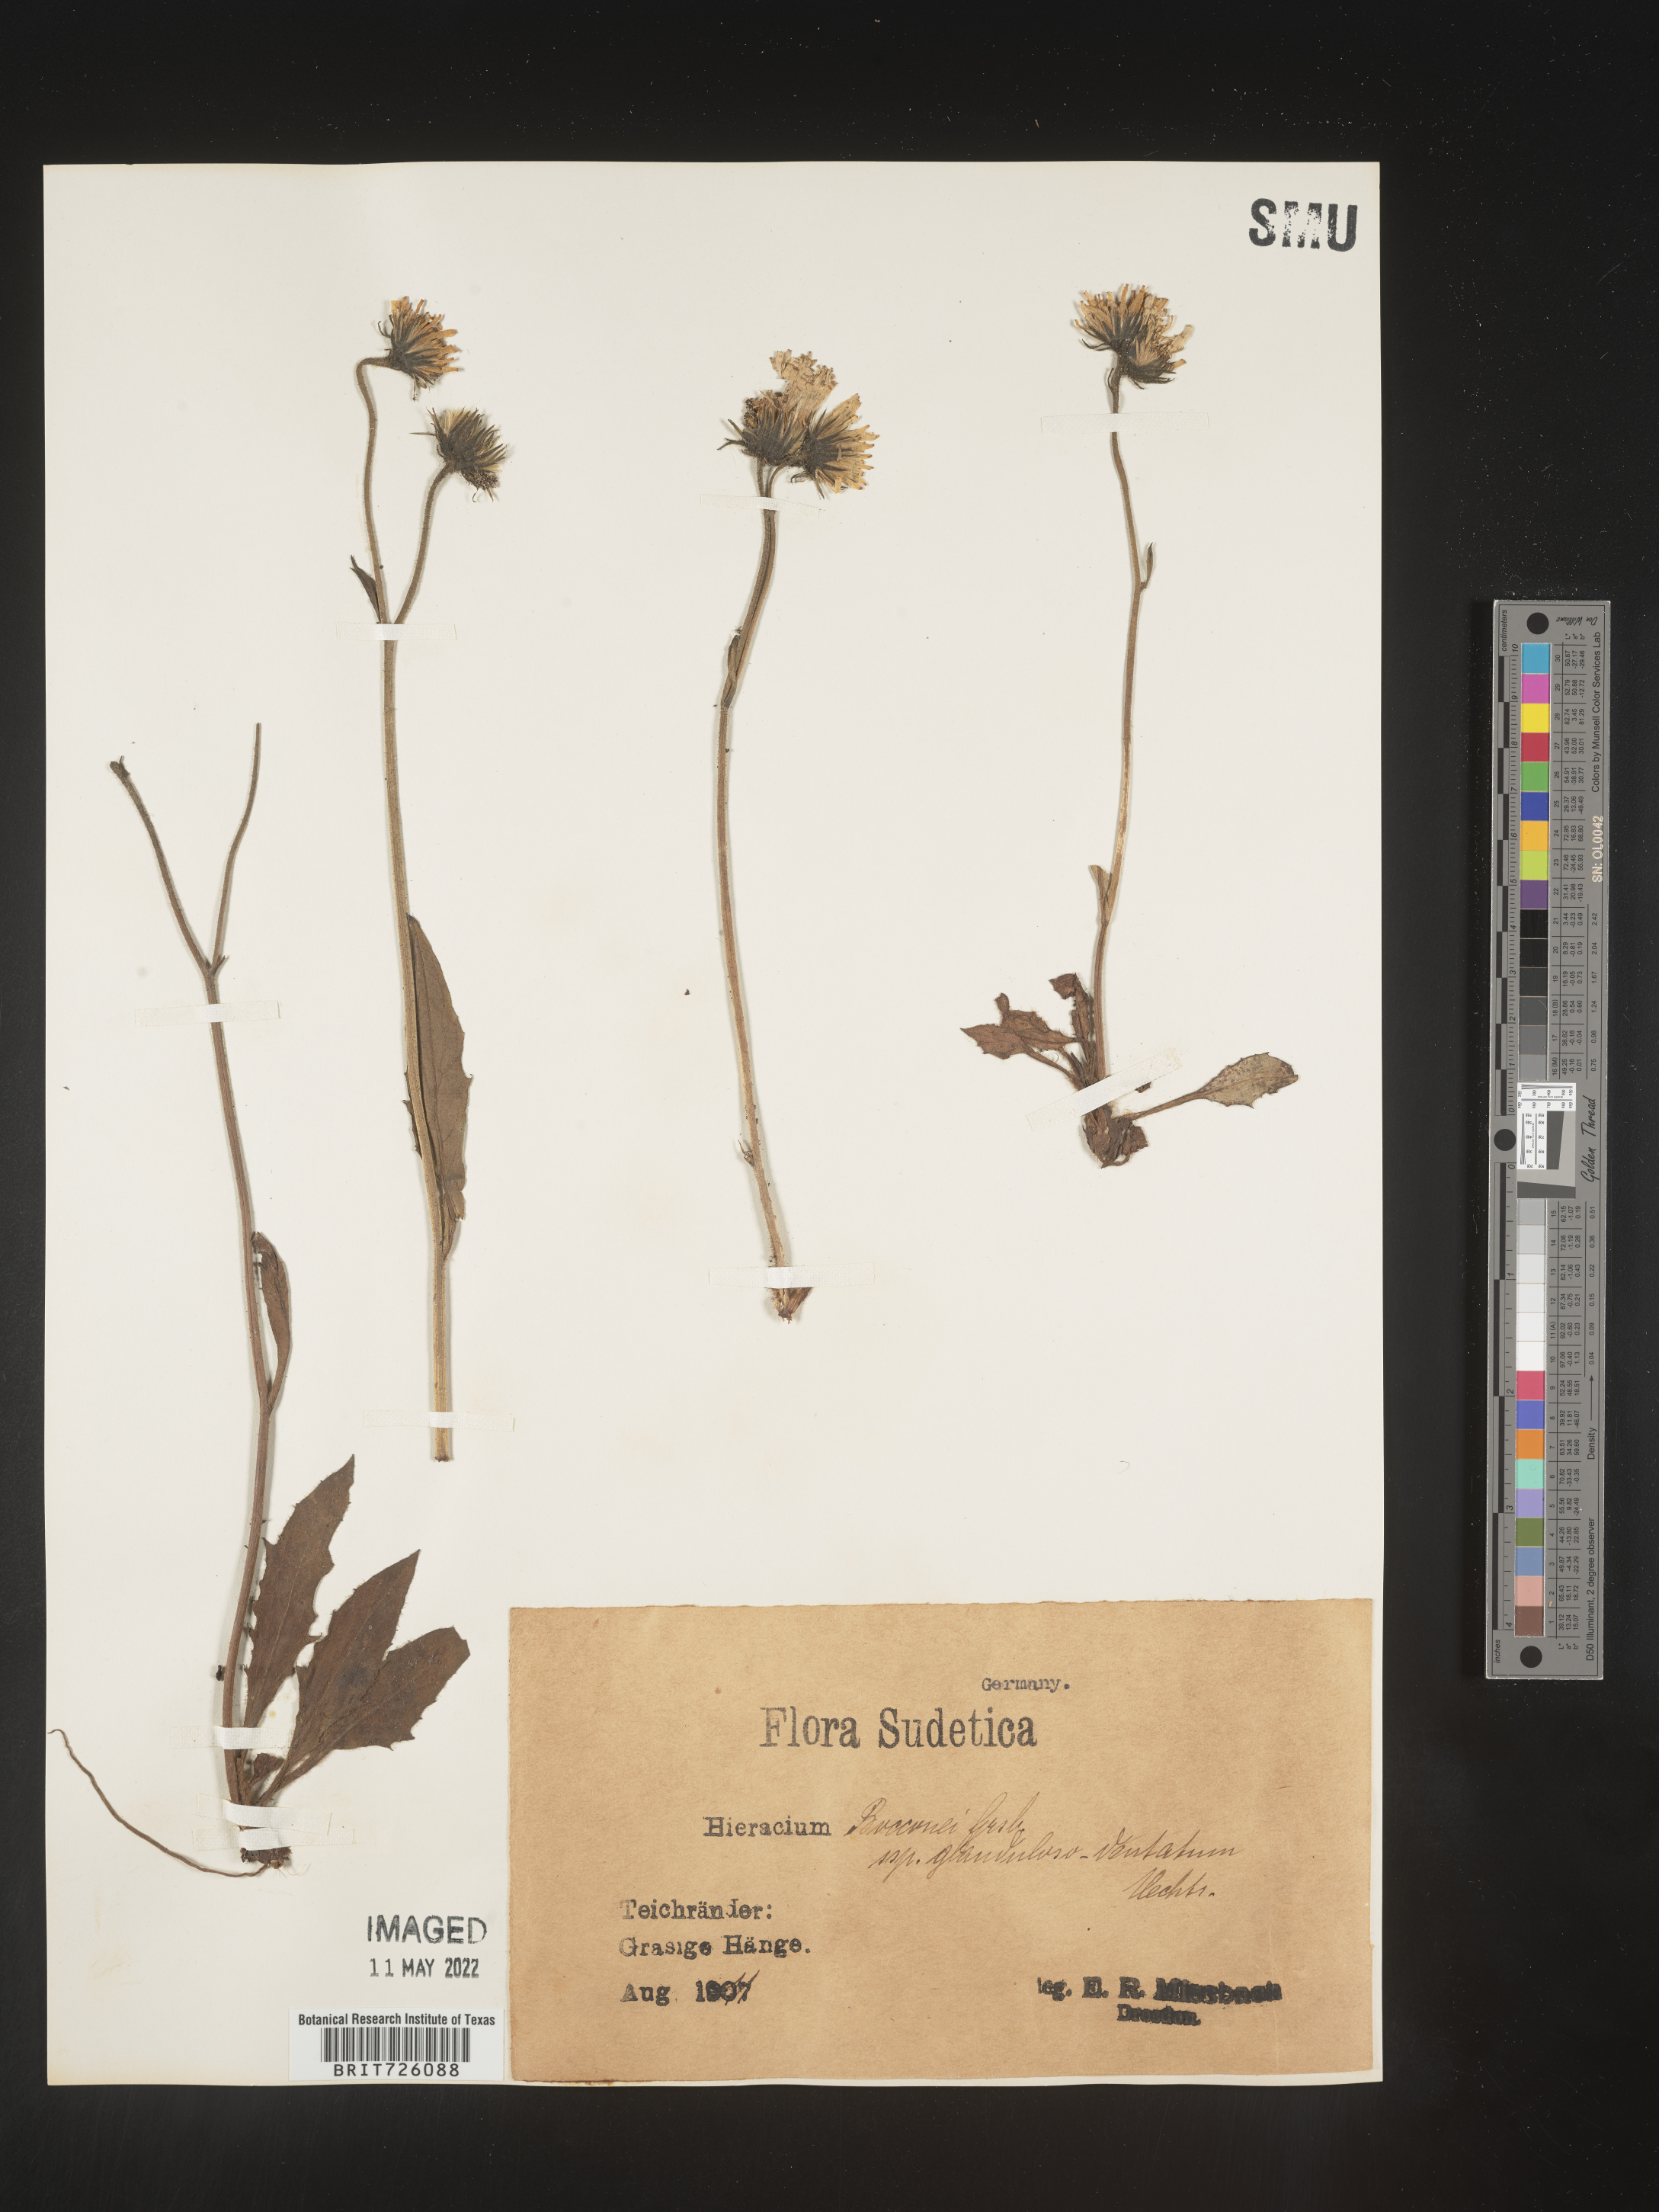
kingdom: Plantae
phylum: Tracheophyta
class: Magnoliopsida
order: Asterales
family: Asteraceae
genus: Hieracium
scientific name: Hieracium
